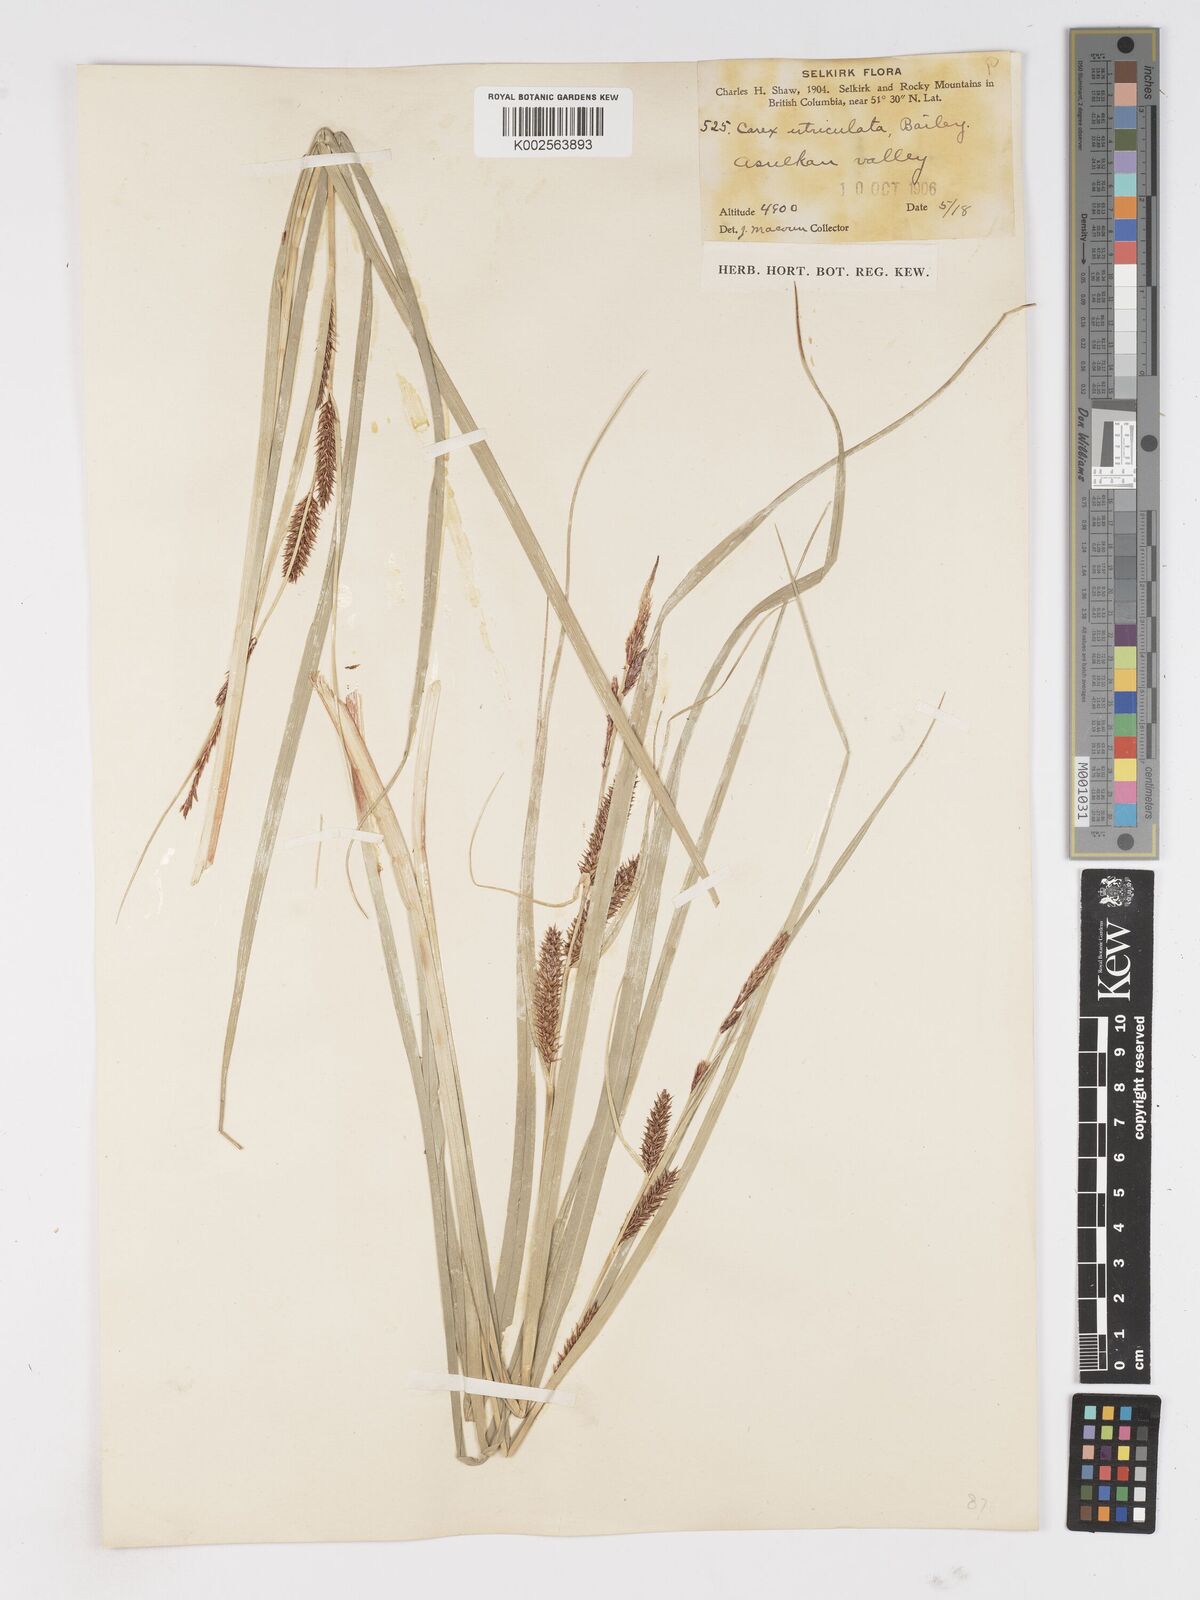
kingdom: Plantae
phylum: Tracheophyta
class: Liliopsida
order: Poales
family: Cyperaceae
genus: Carex
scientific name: Carex rostrata
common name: Bottle sedge
